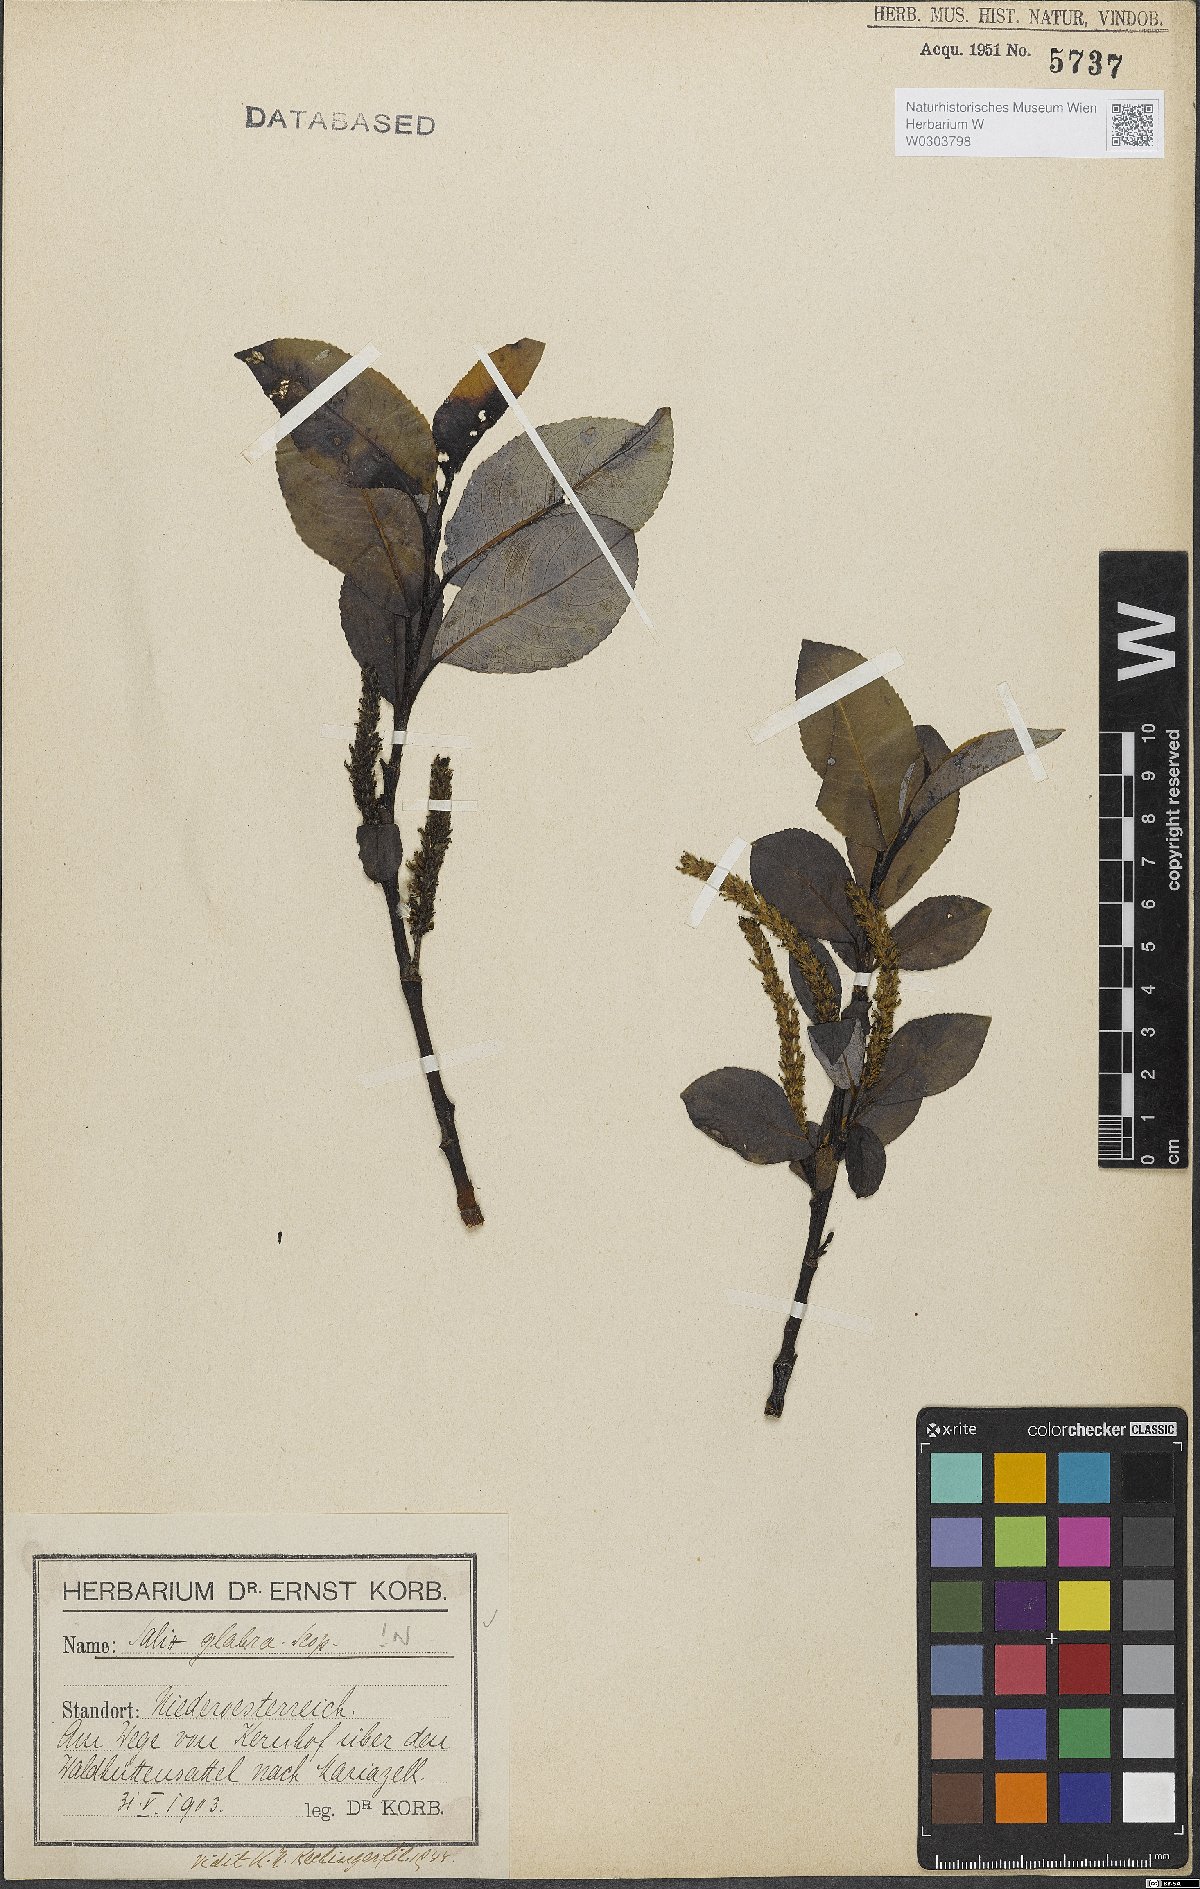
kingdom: Plantae
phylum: Tracheophyta
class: Magnoliopsida
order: Malpighiales
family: Salicaceae
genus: Salix
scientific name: Salix glabra
